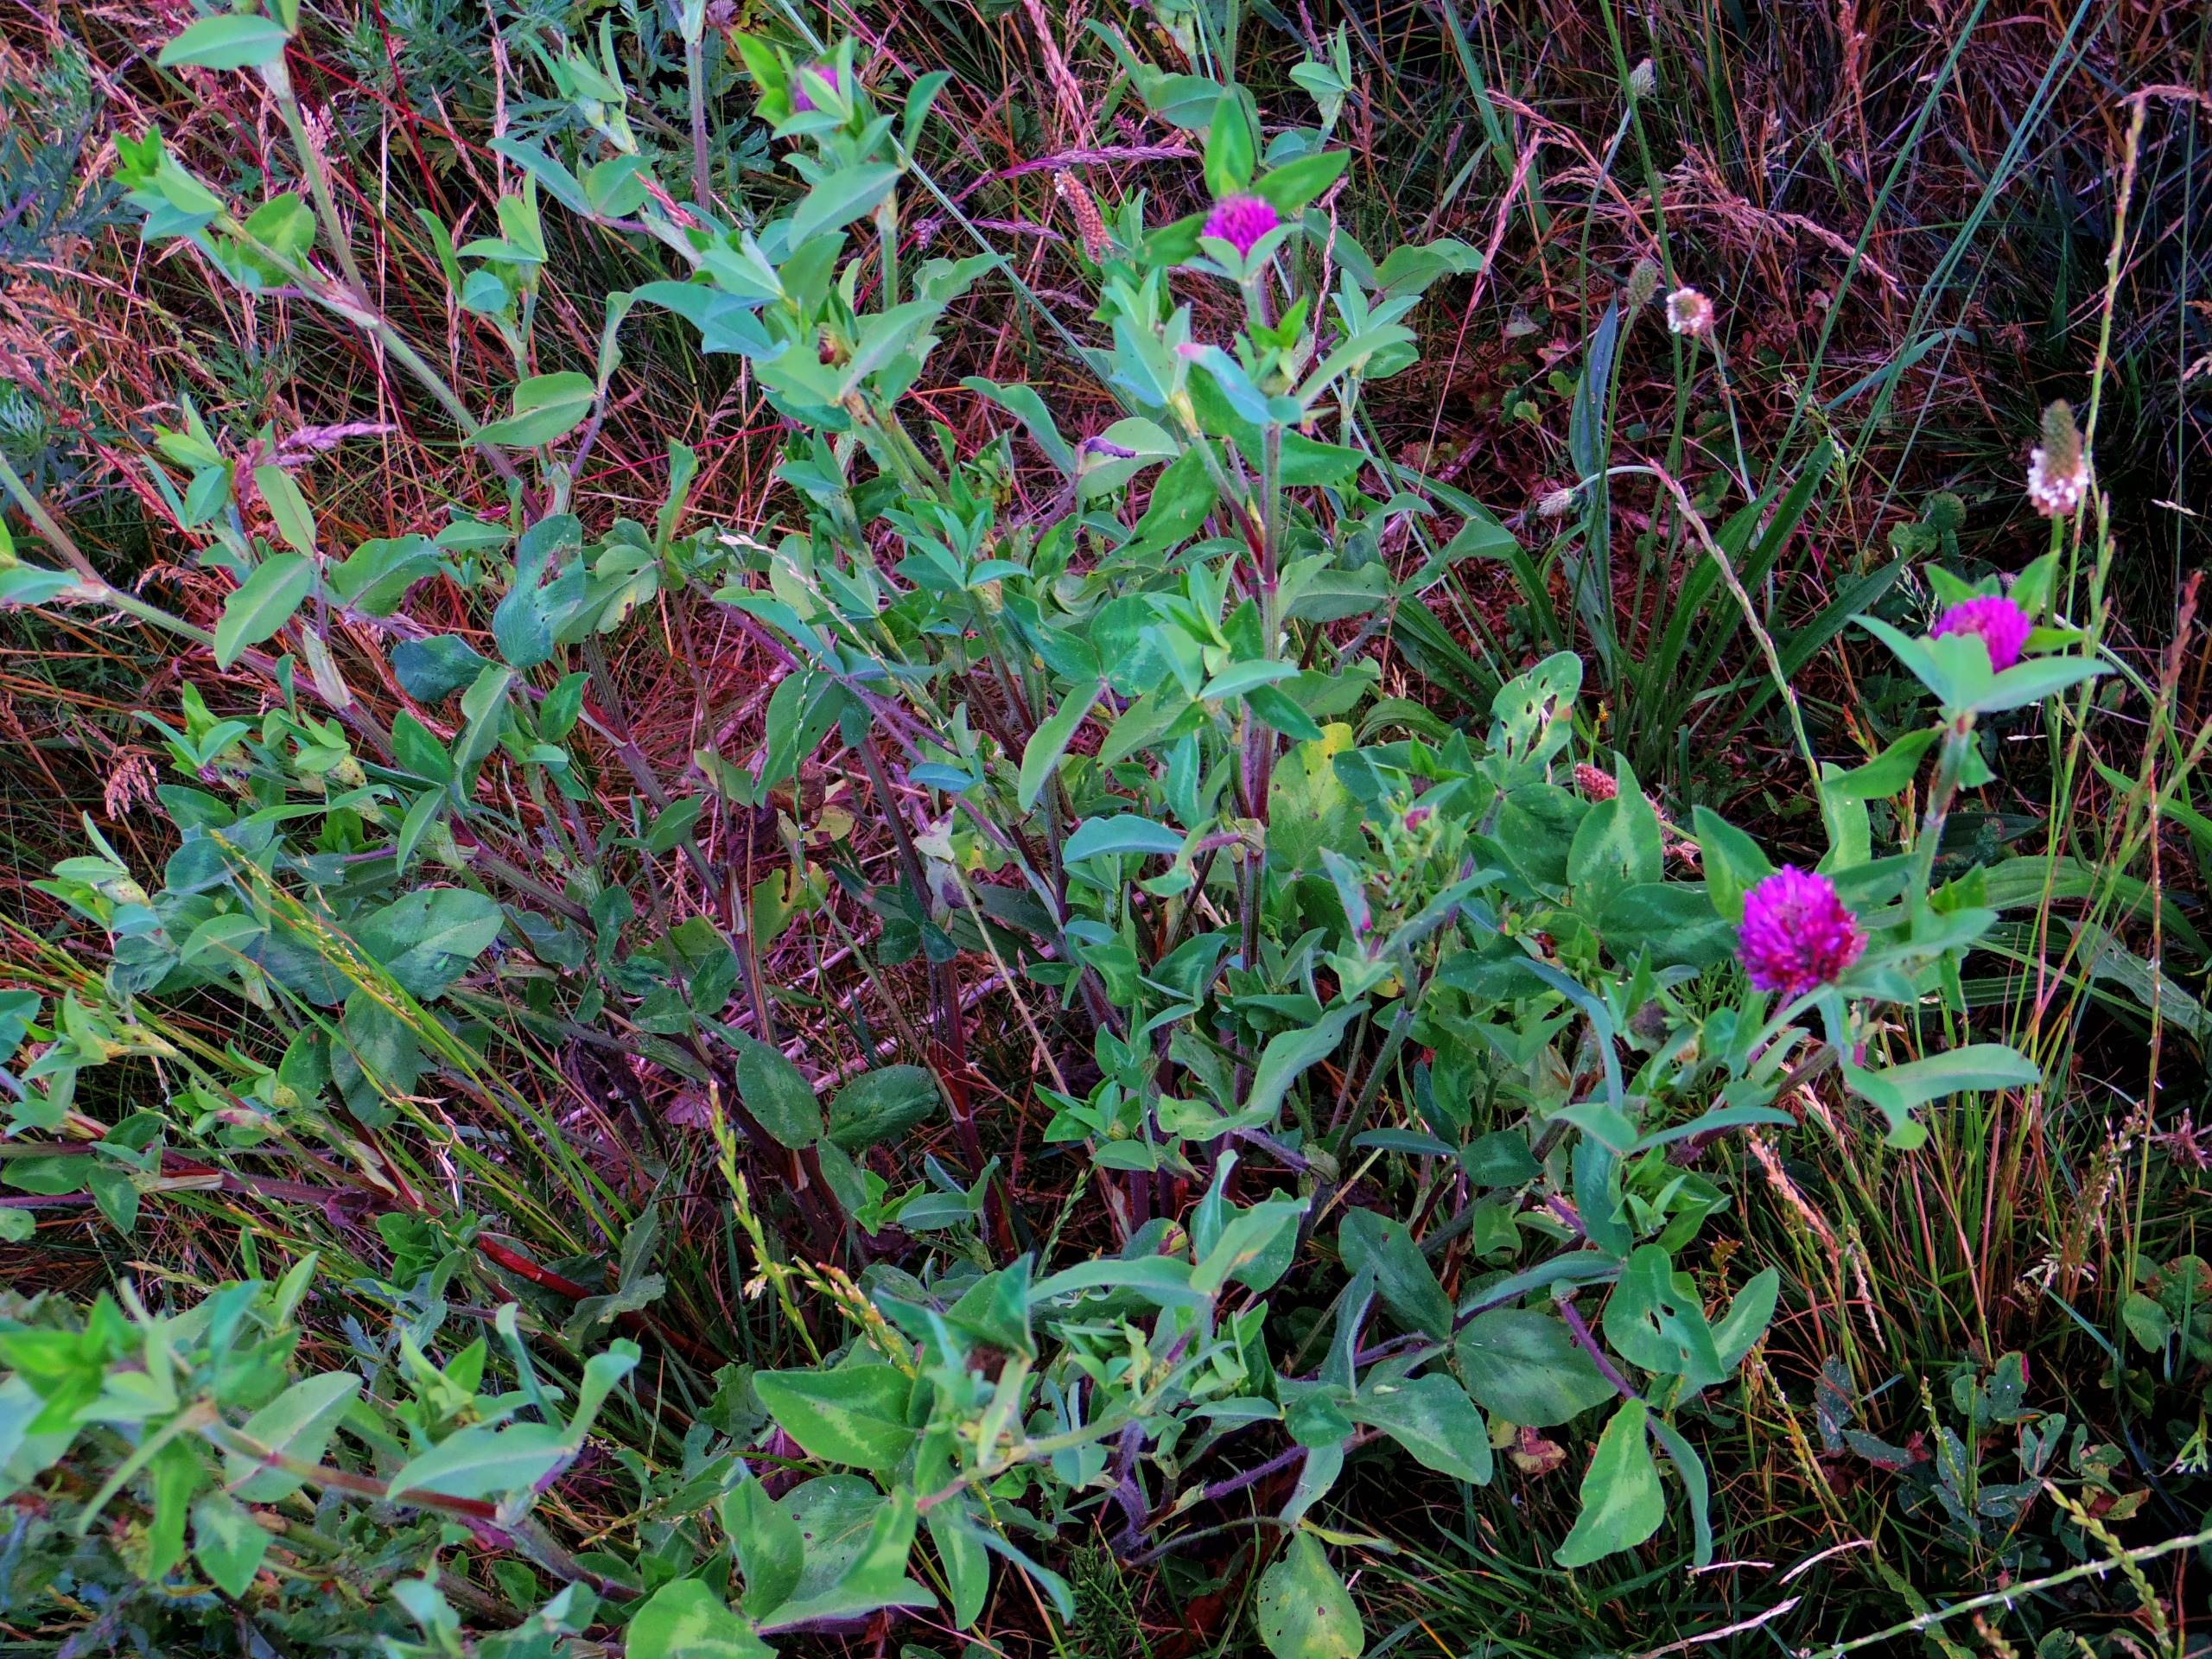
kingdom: Plantae
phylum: Tracheophyta
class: Magnoliopsida
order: Fabales
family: Fabaceae
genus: Trifolium
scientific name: Trifolium pratense
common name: Rød-kløver
